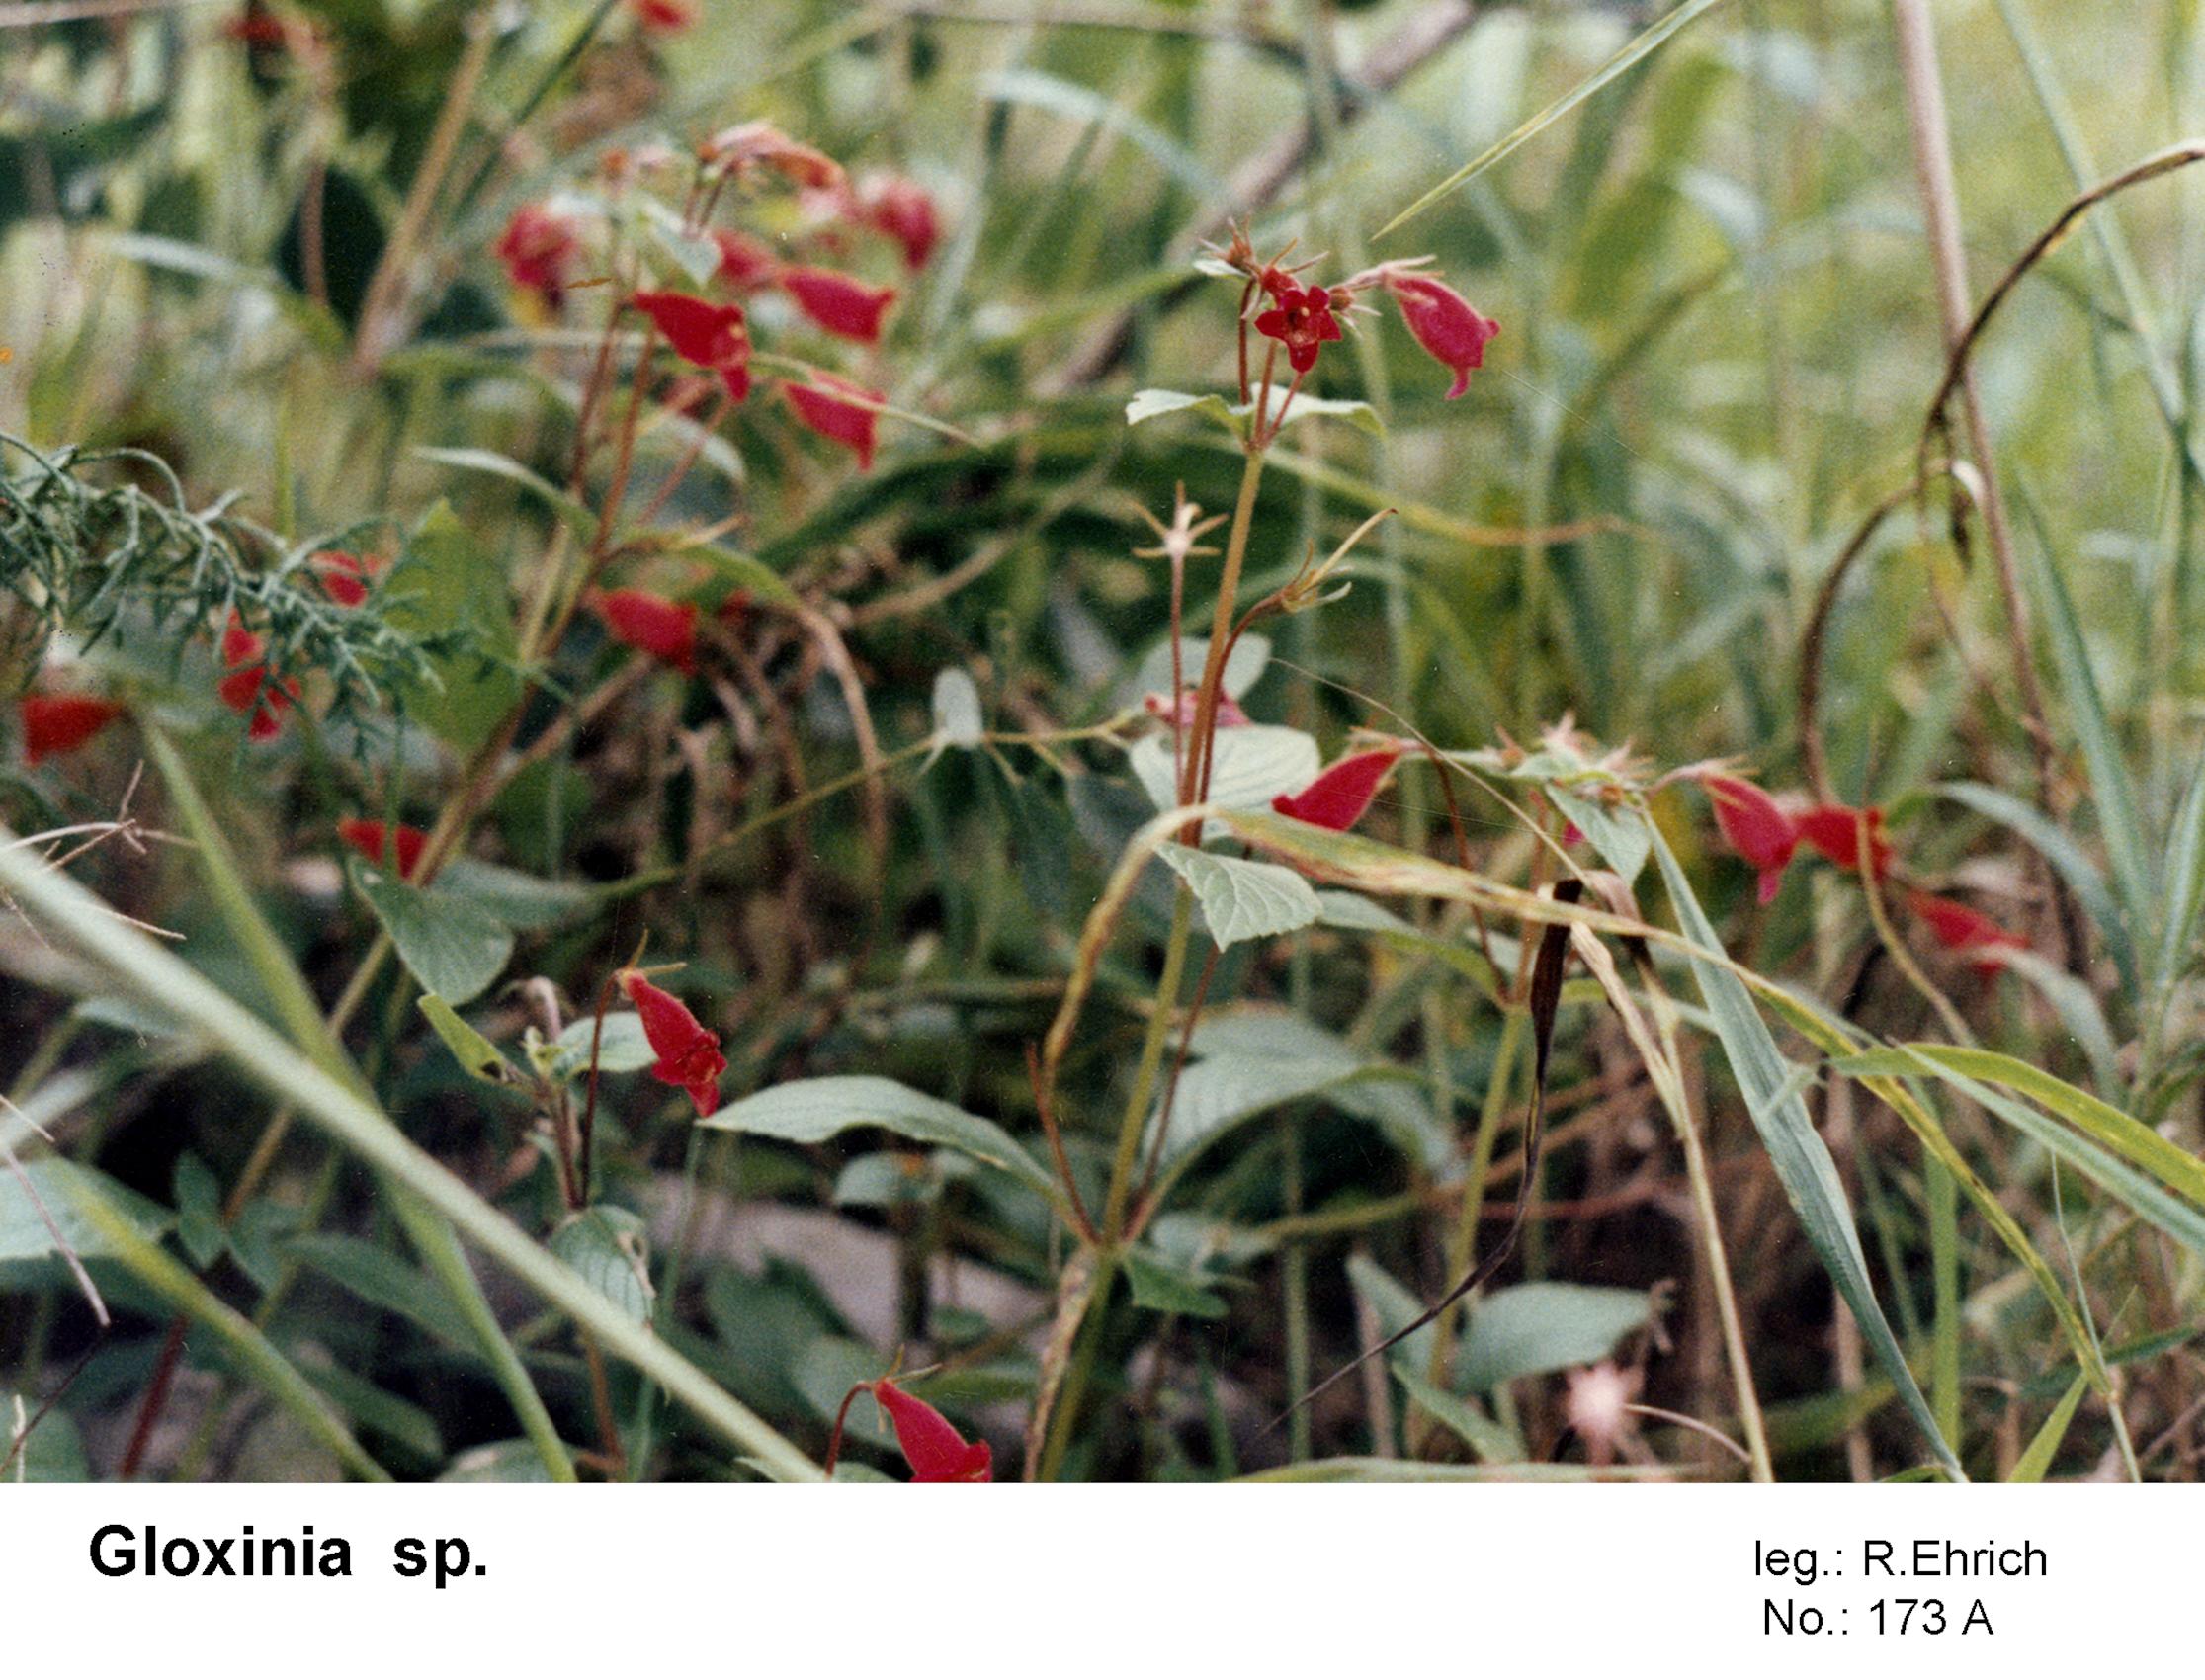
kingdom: Plantae
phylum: Tracheophyta
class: Magnoliopsida
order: Lamiales
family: Gesneriaceae
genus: Seemannia
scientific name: Seemannia gymnostoma
